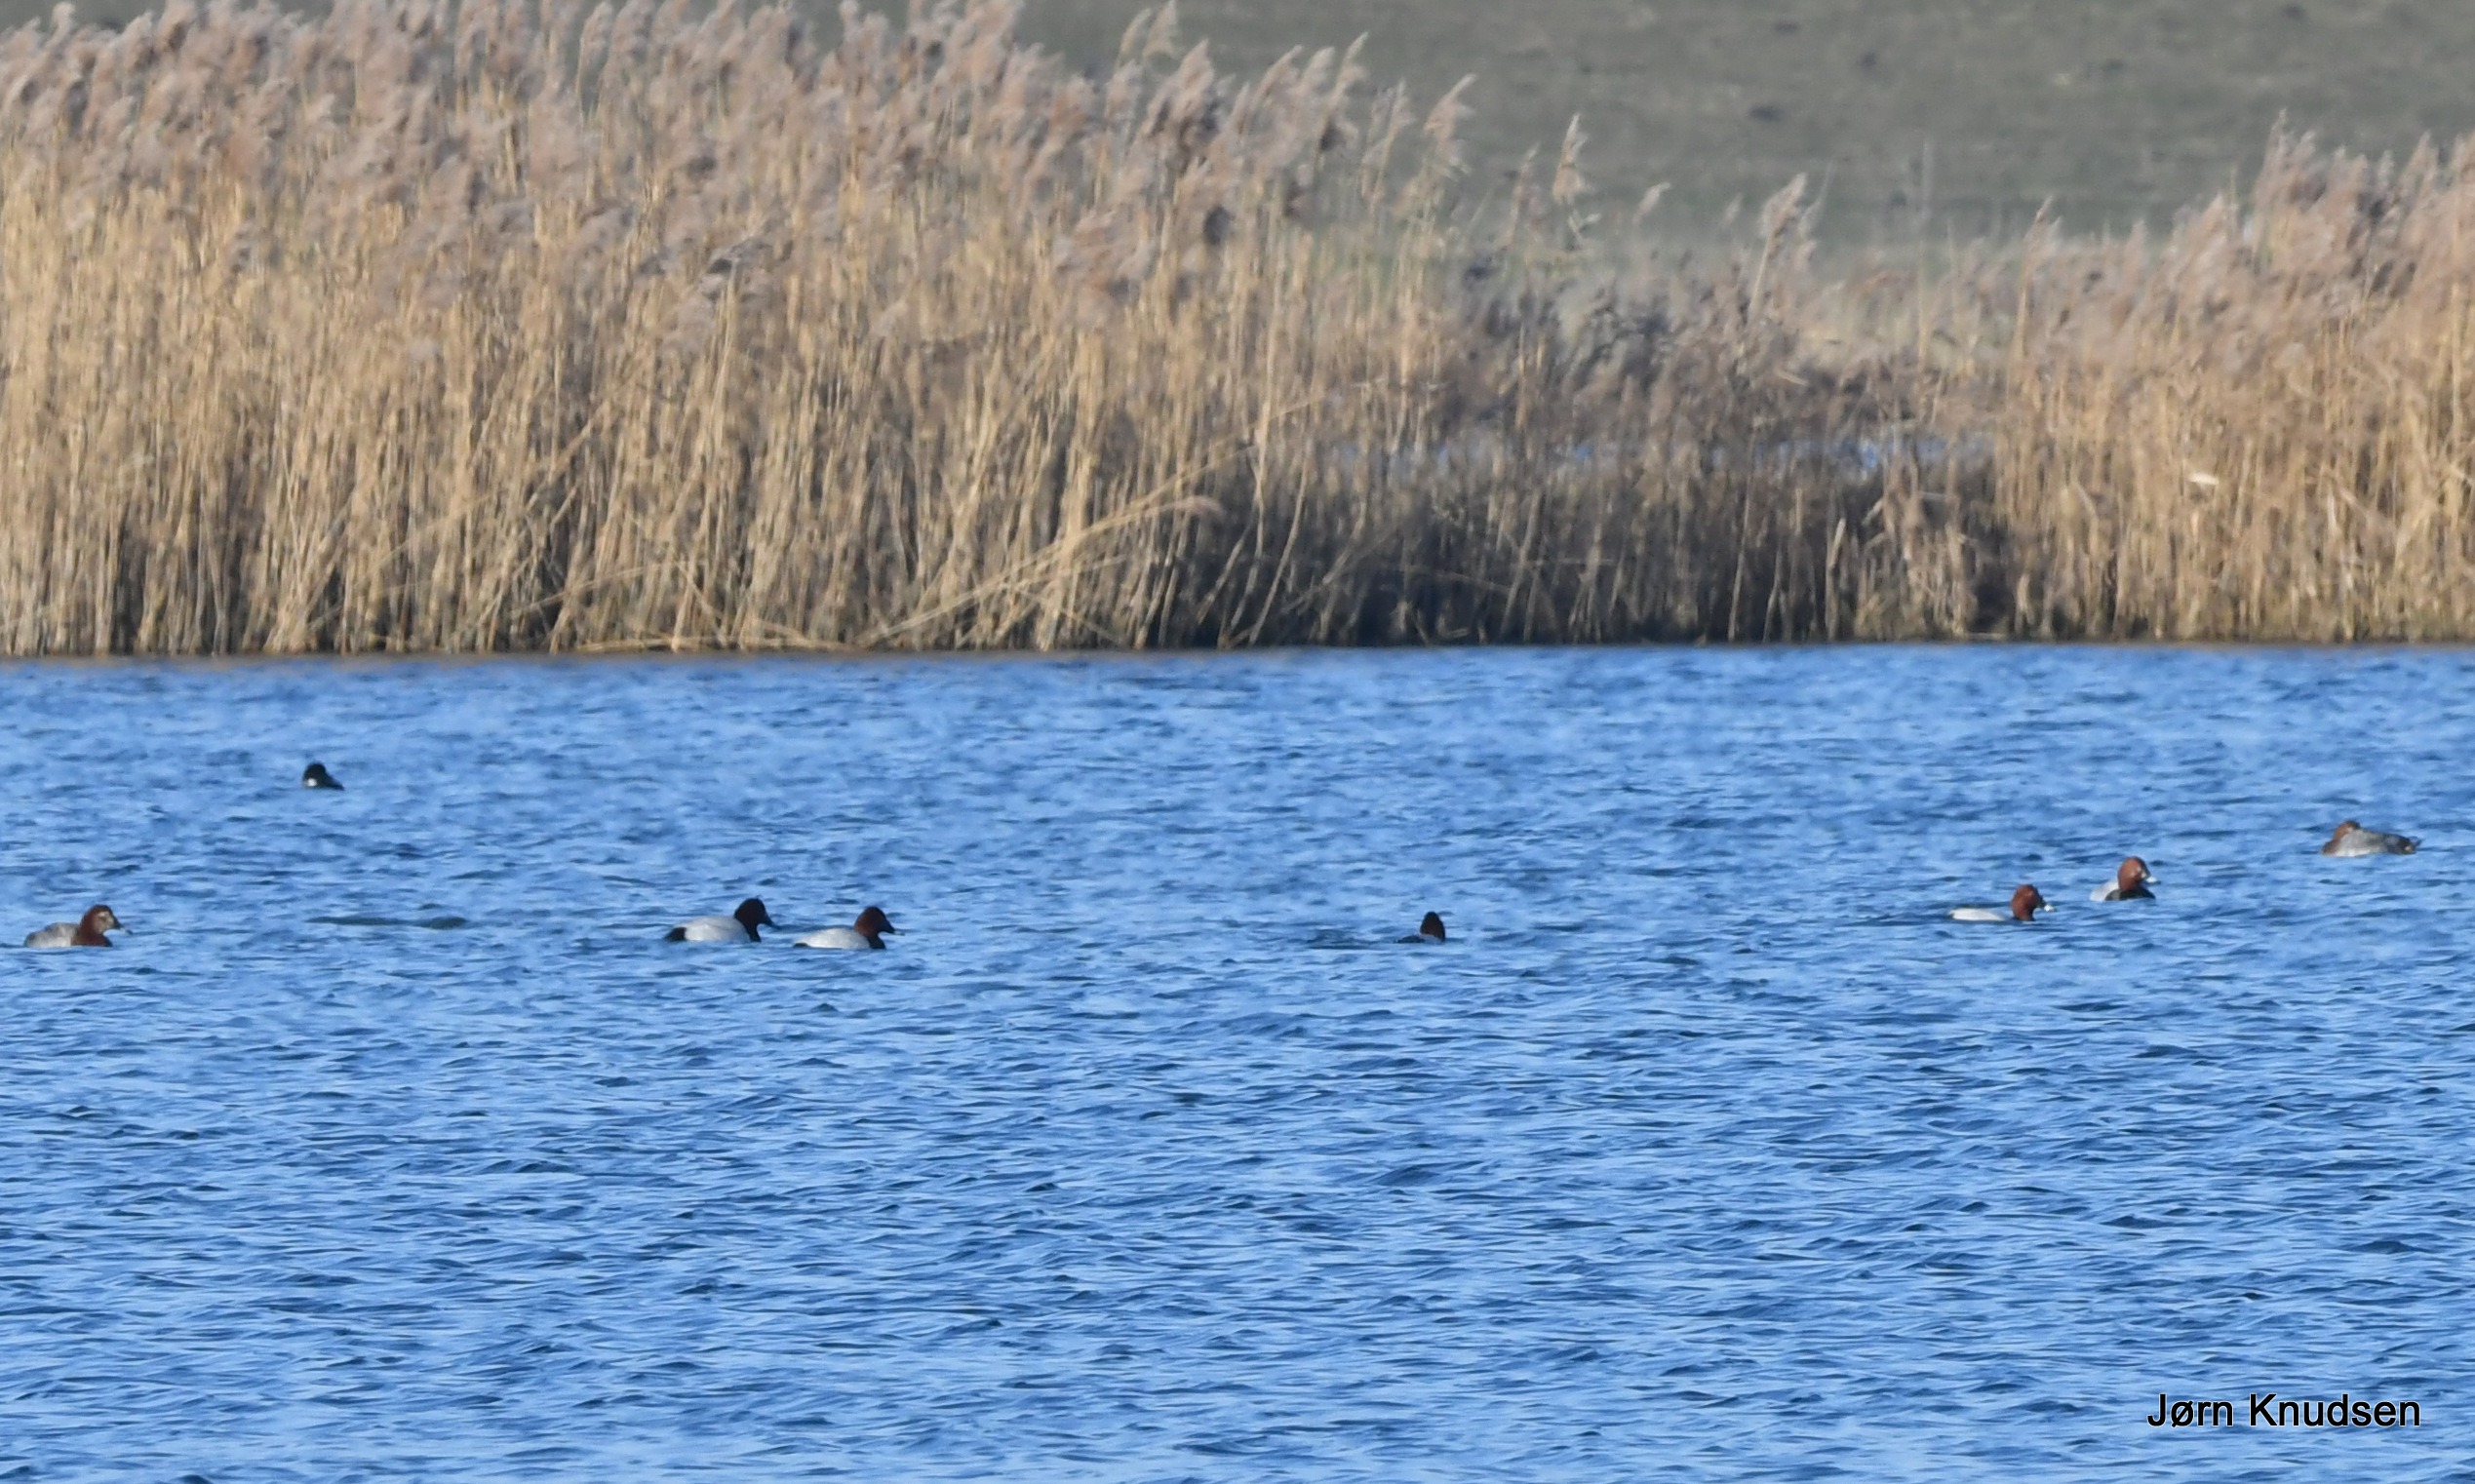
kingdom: Animalia
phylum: Chordata
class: Aves
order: Anseriformes
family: Anatidae
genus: Aythya
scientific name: Aythya ferina
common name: Taffeland
